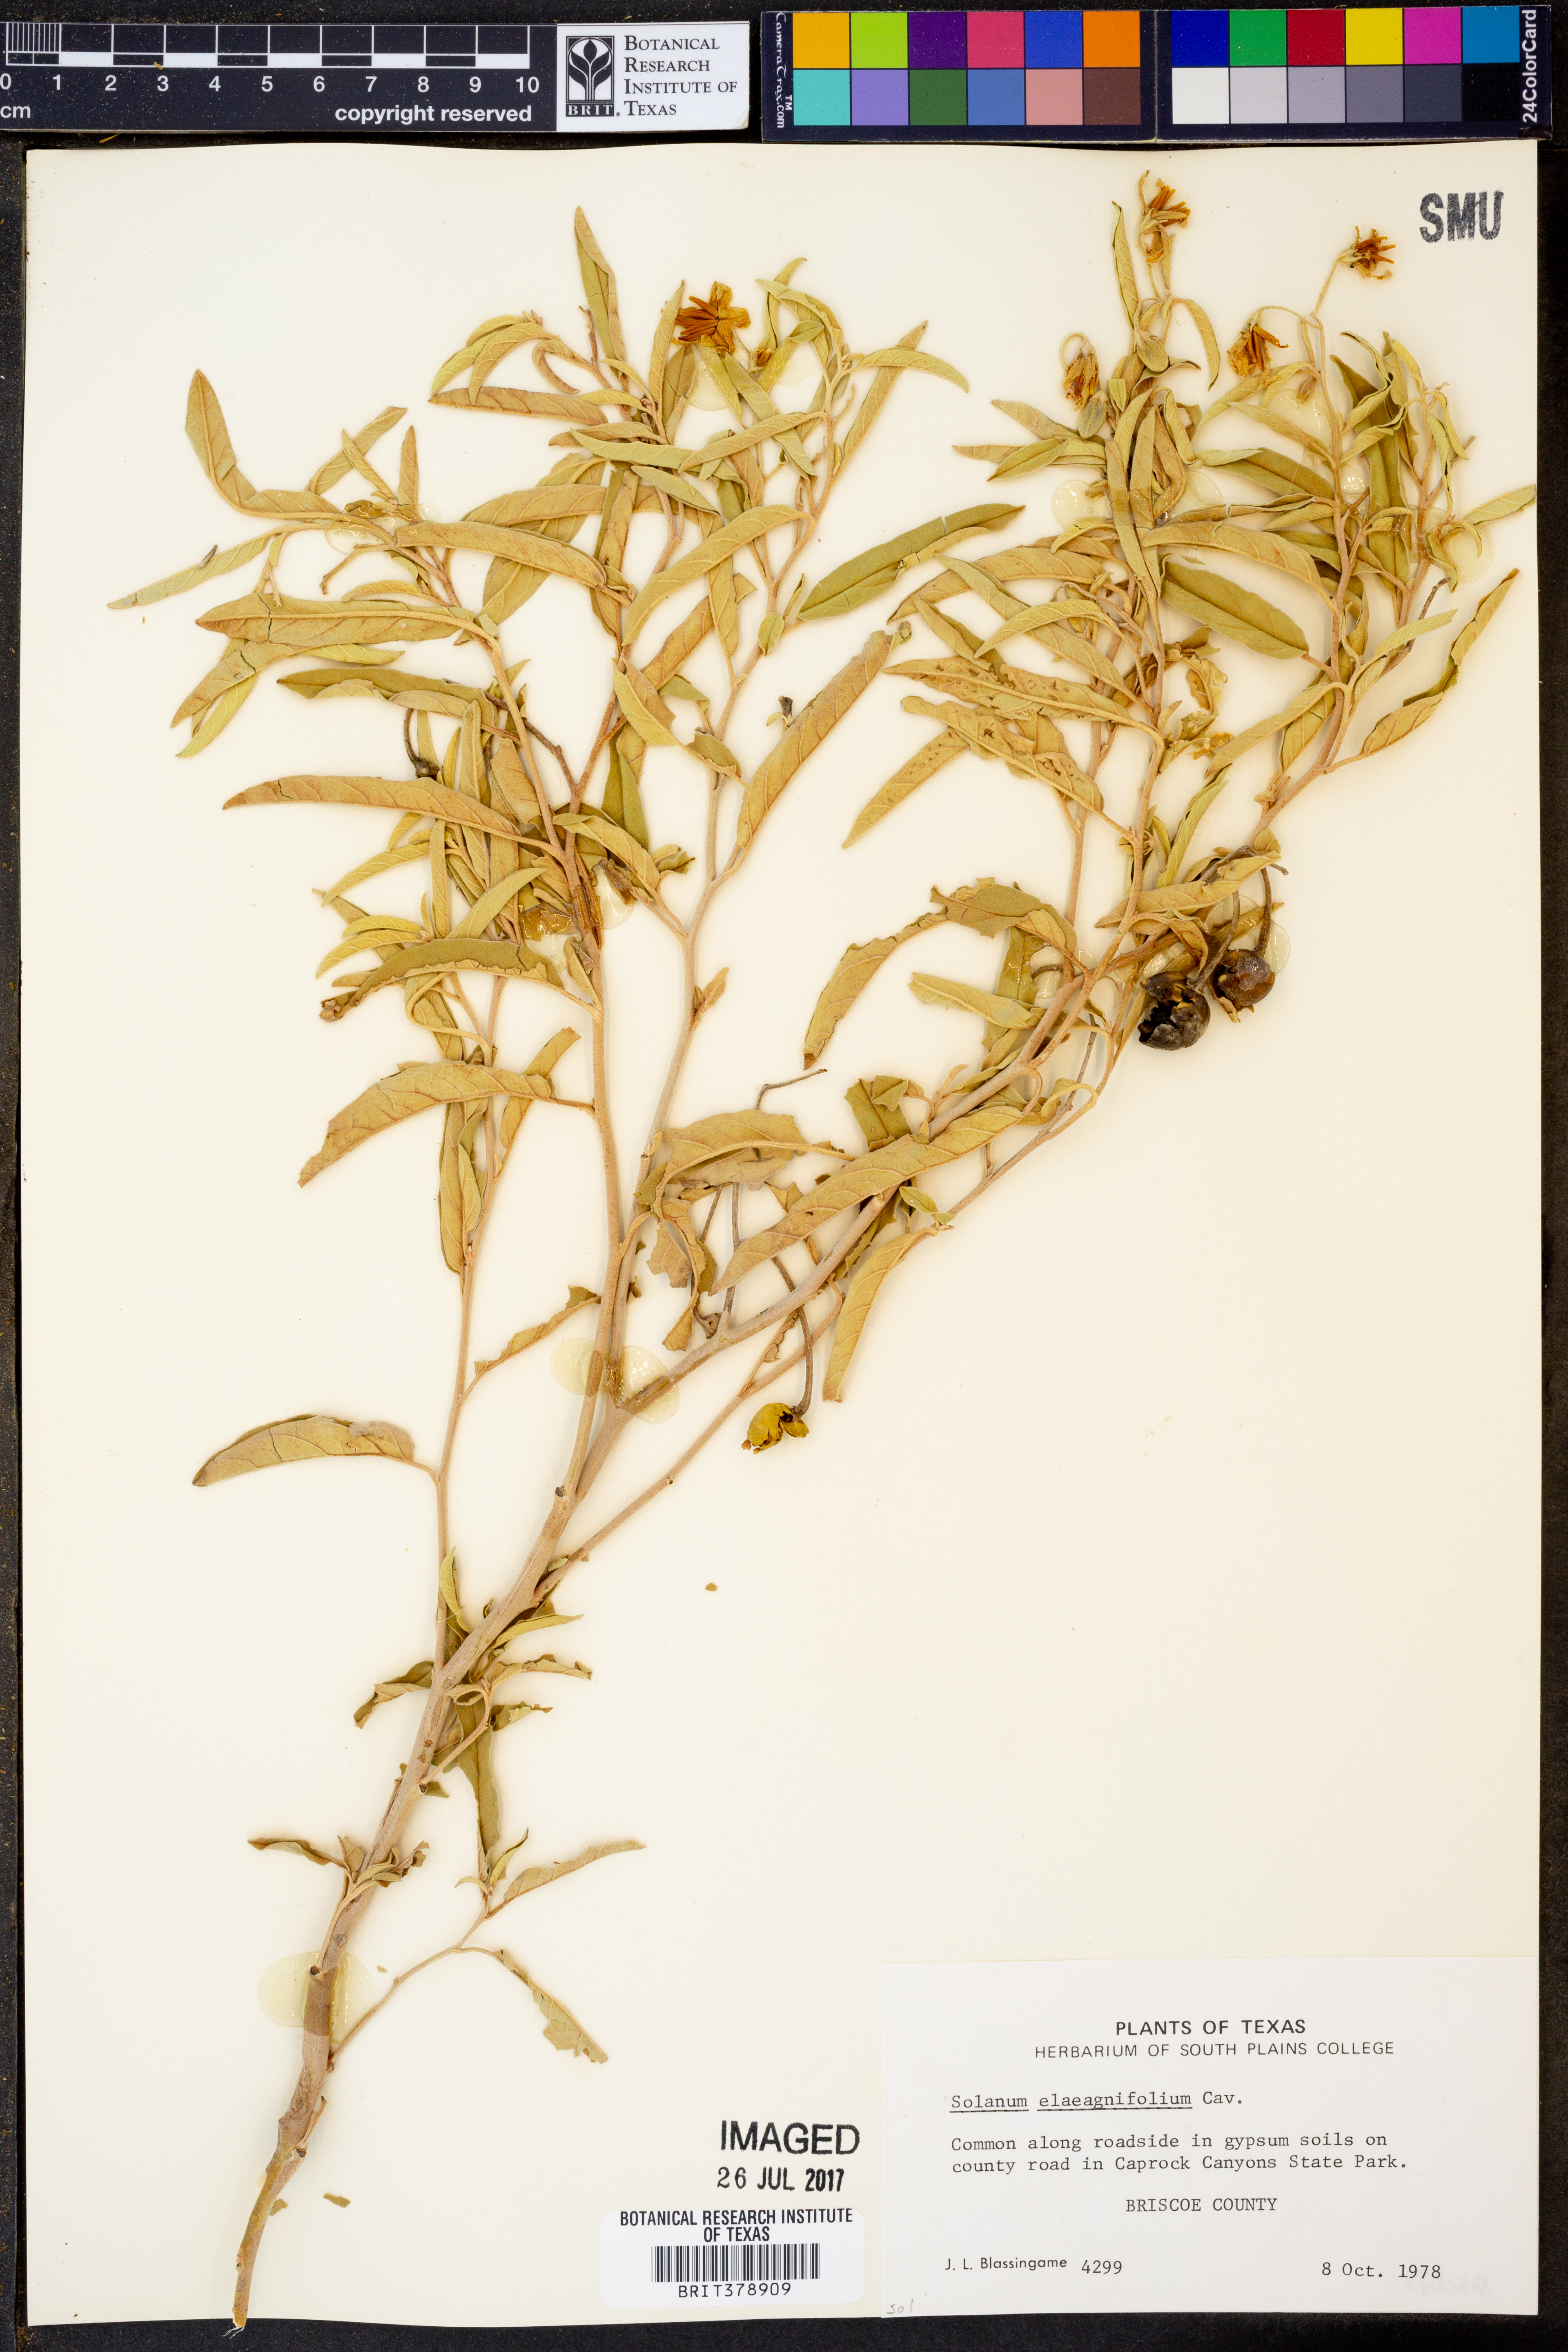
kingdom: Plantae
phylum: Tracheophyta
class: Magnoliopsida
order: Solanales
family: Solanaceae
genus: Solanum
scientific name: Solanum elaeagnifolium
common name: Silverleaf nightshade
